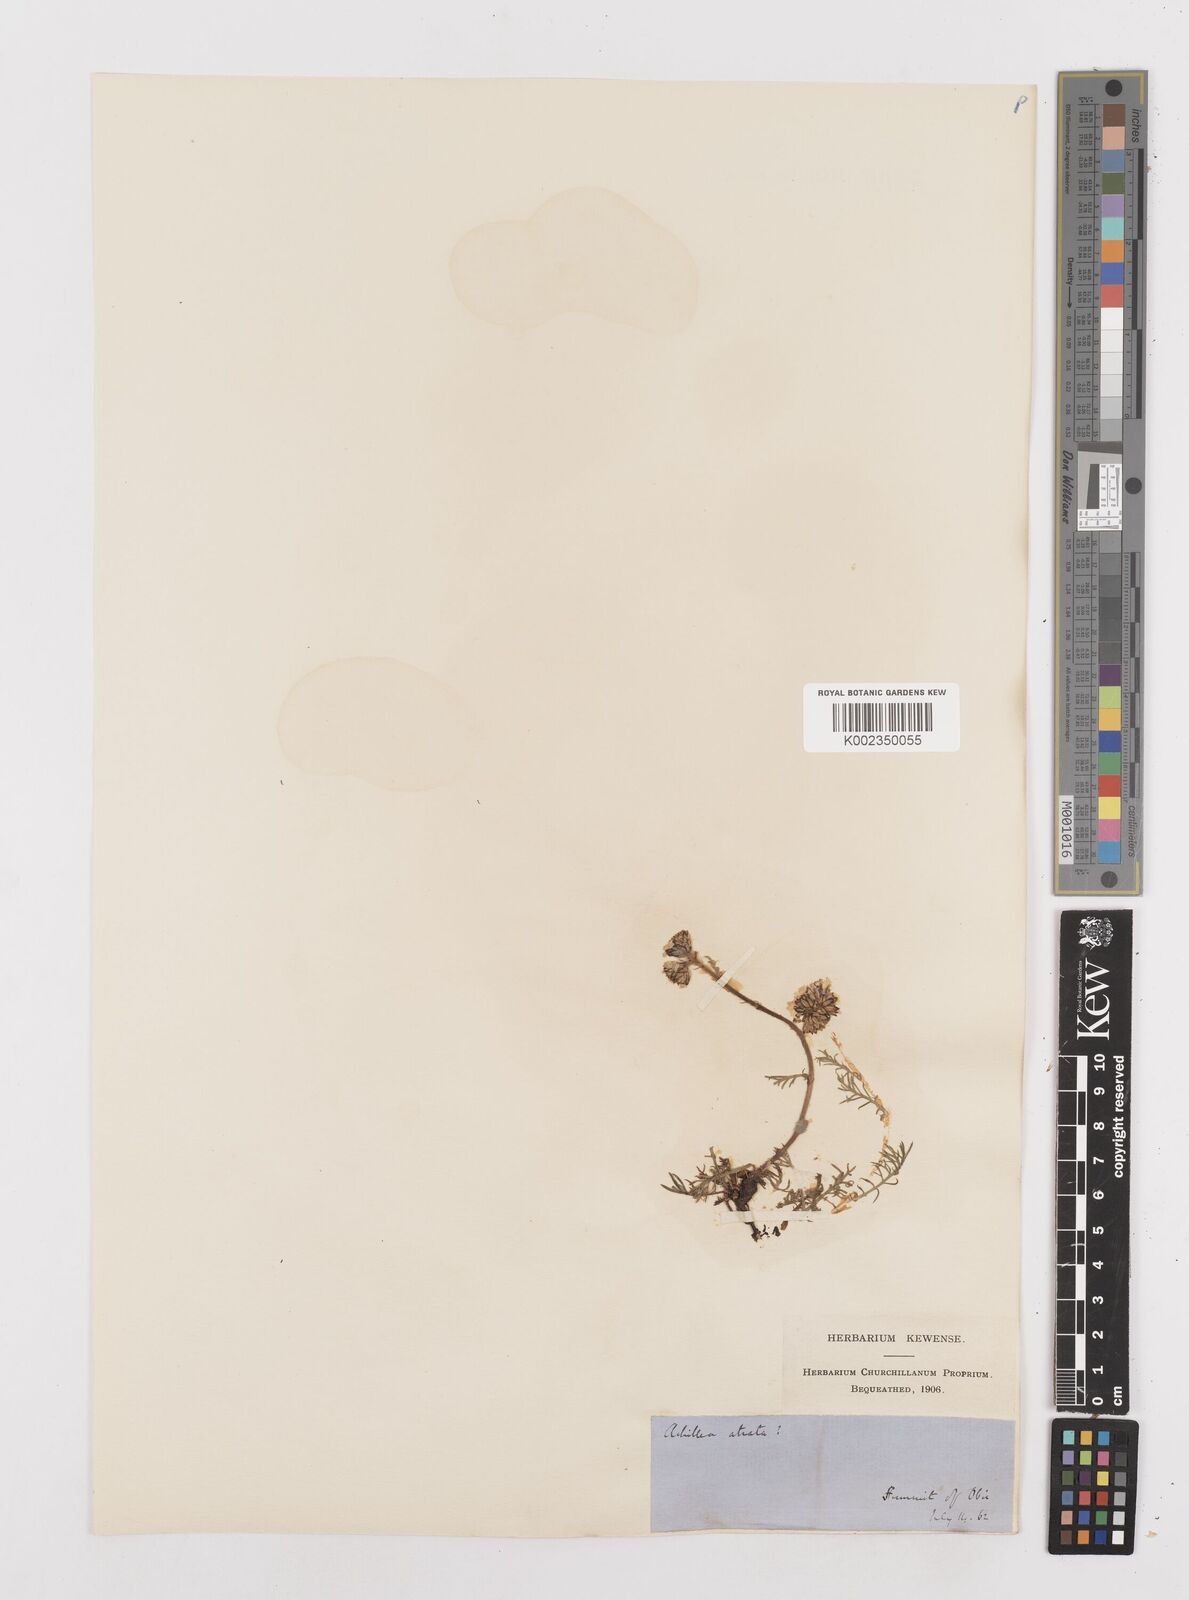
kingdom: Plantae
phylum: Tracheophyta
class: Magnoliopsida
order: Asterales
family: Asteraceae
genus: Achillea
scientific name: Achillea atrata
